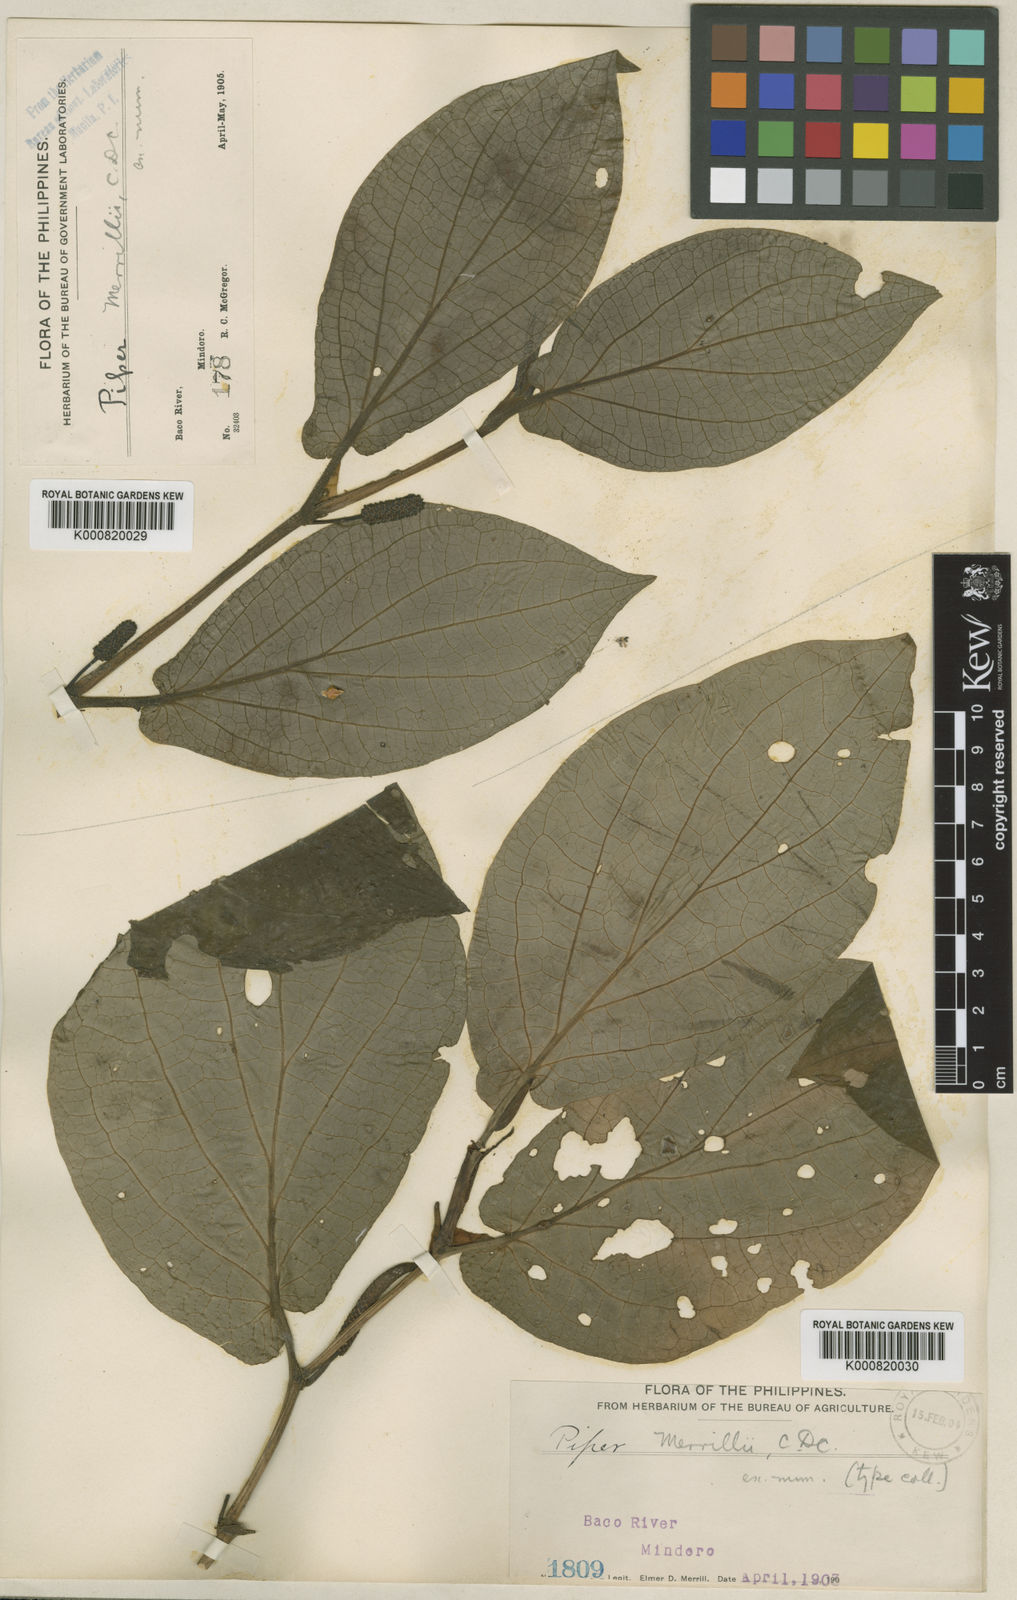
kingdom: Plantae
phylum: Tracheophyta
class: Magnoliopsida
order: Piperales
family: Piperaceae
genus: Piper
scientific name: Piper merrillii
